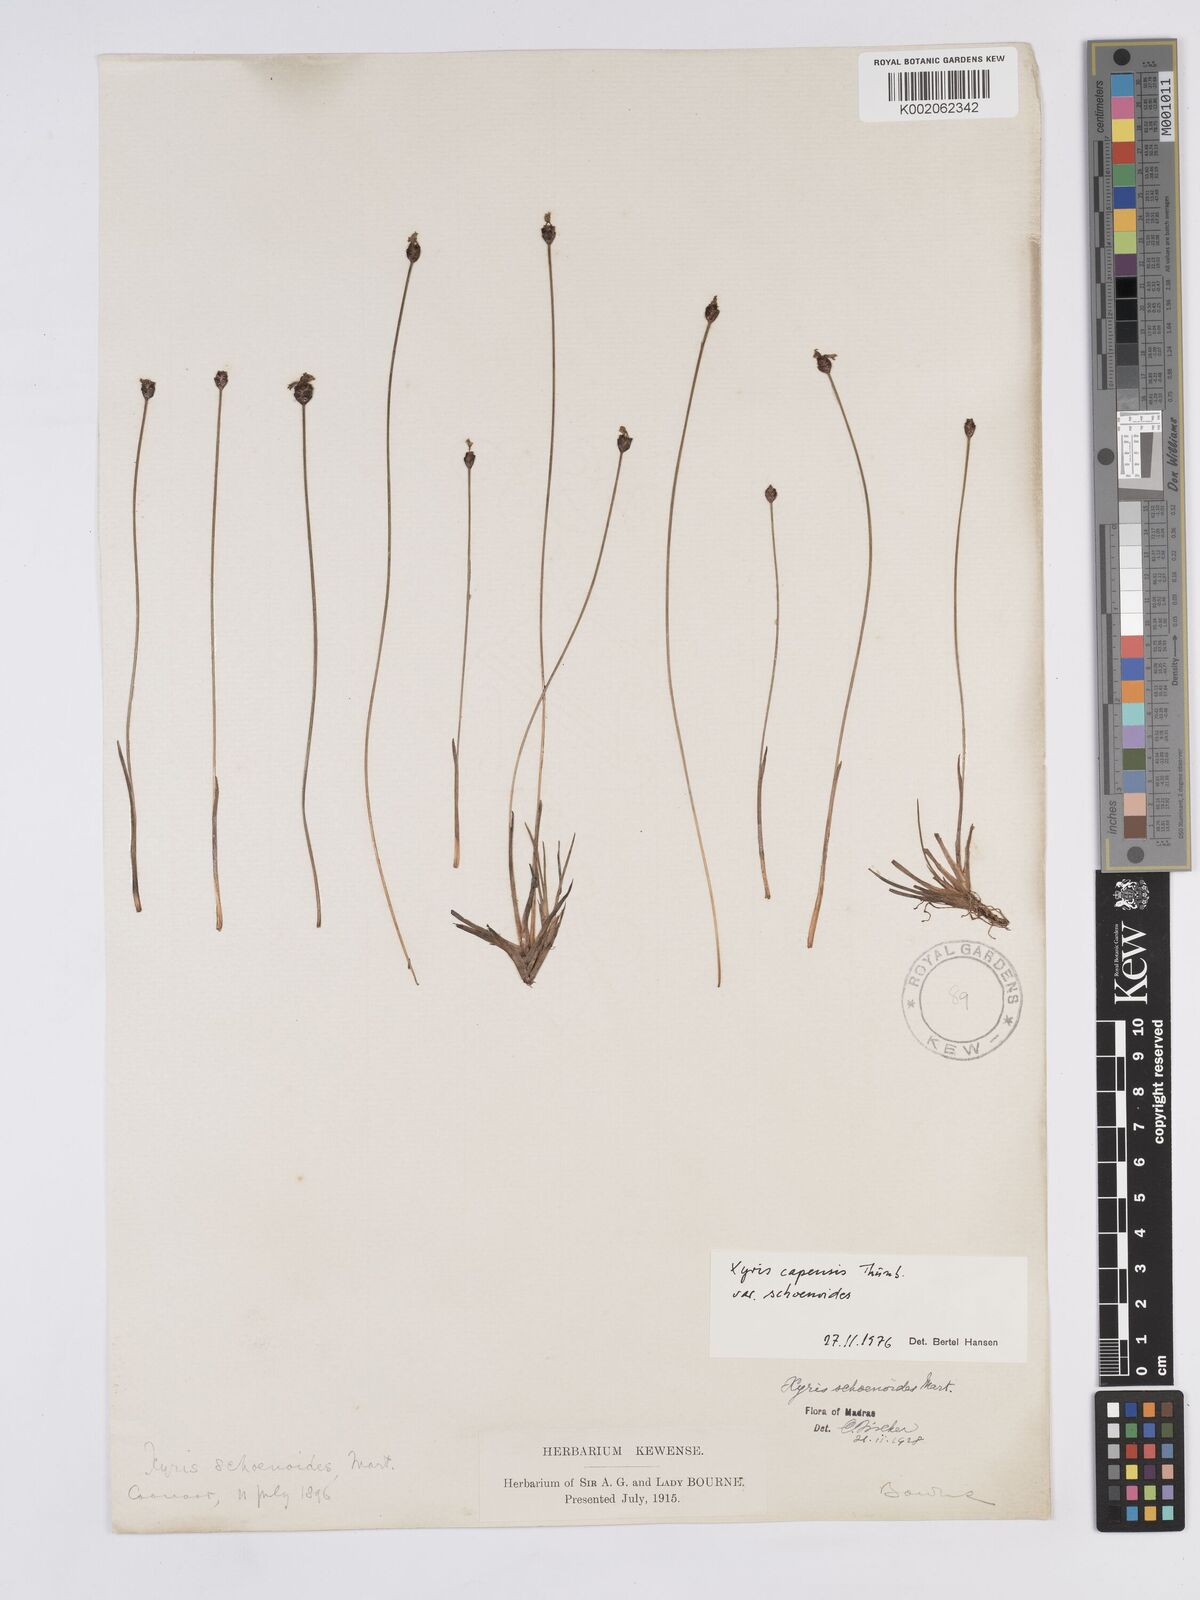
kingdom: Plantae
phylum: Tracheophyta
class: Liliopsida
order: Poales
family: Xyridaceae
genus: Xyris
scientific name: Xyris capensis
